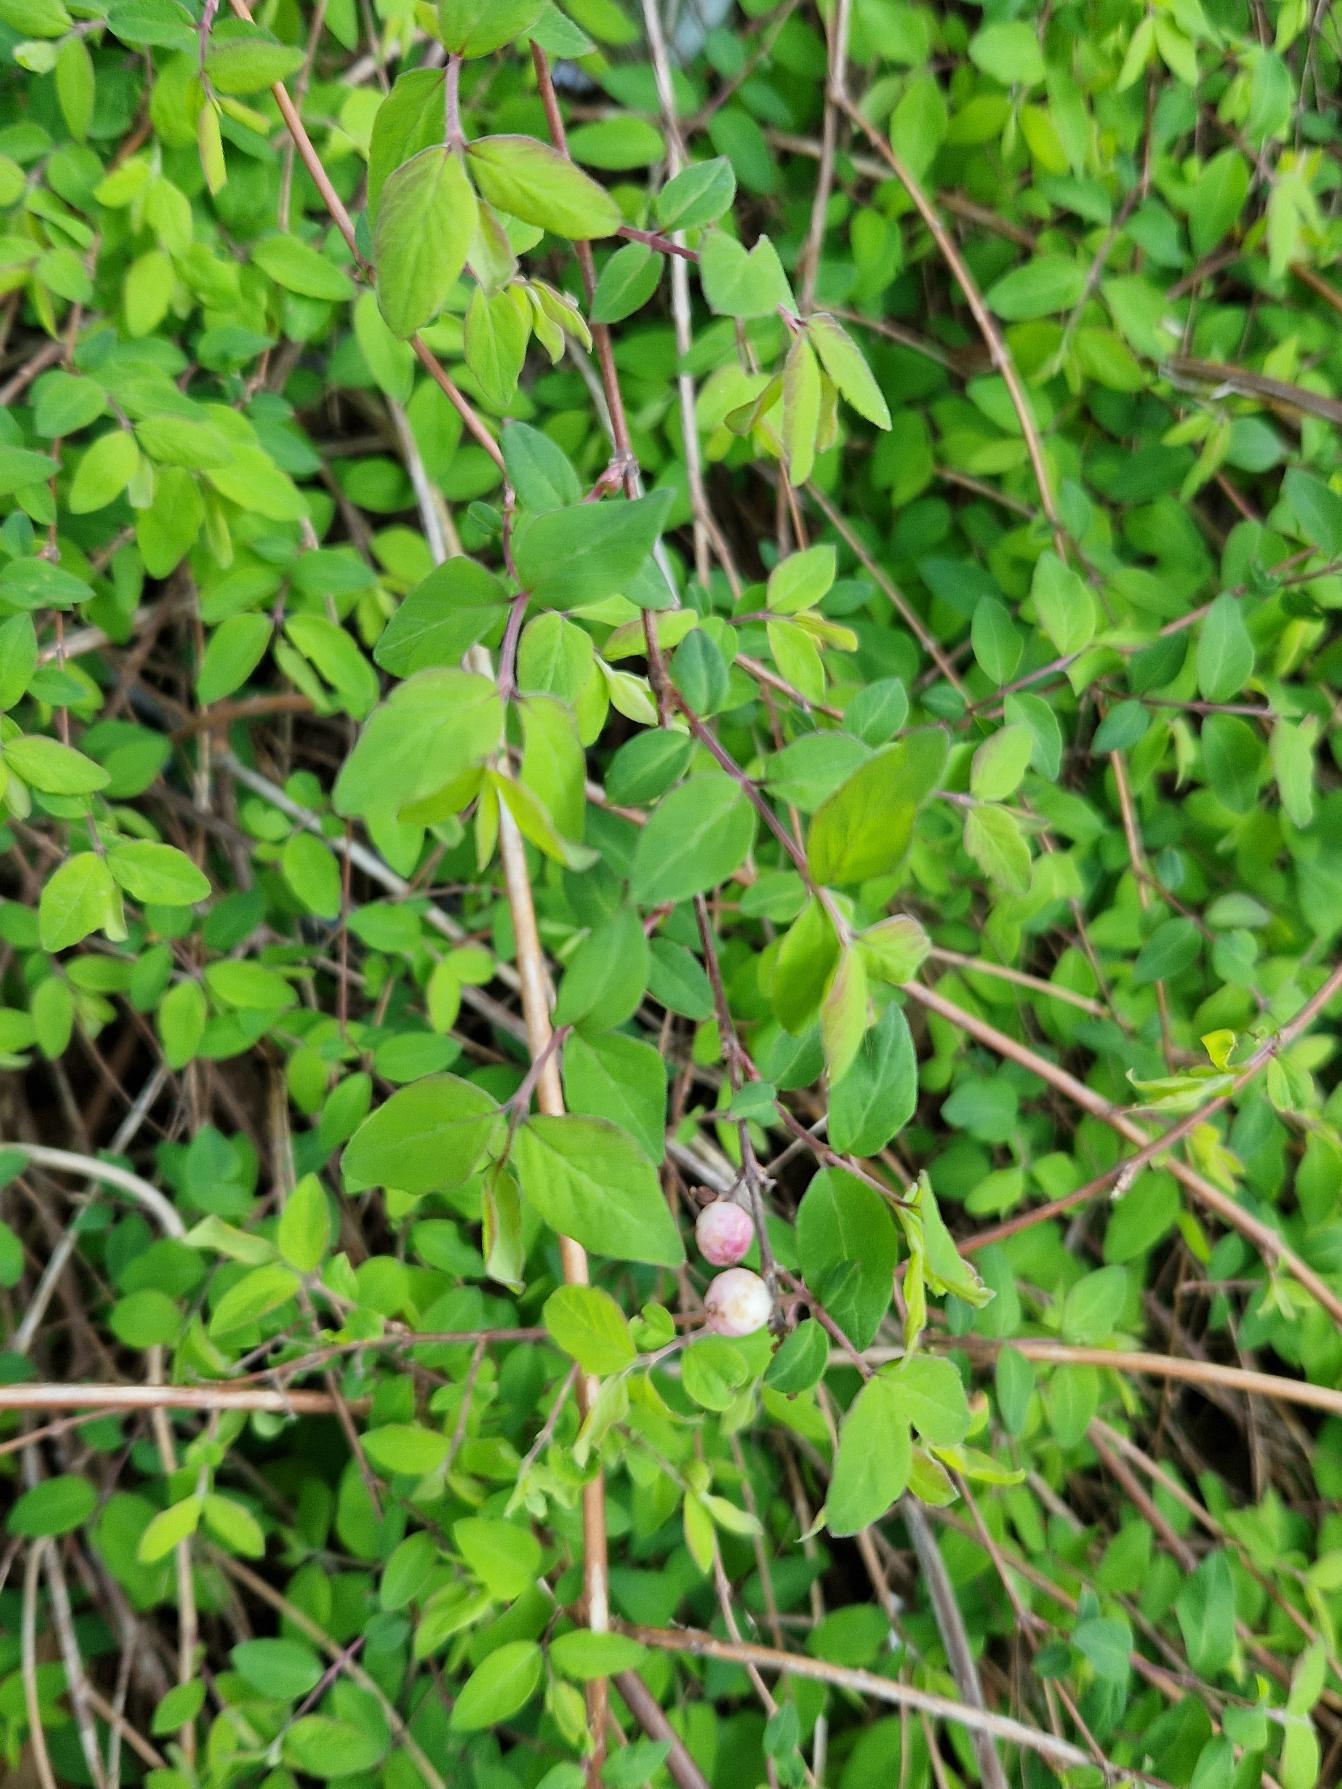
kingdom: Plantae
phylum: Tracheophyta
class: Magnoliopsida
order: Dipsacales
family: Caprifoliaceae
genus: Symphoricarpos
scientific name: Symphoricarpos albus
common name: Almindelig snebær
